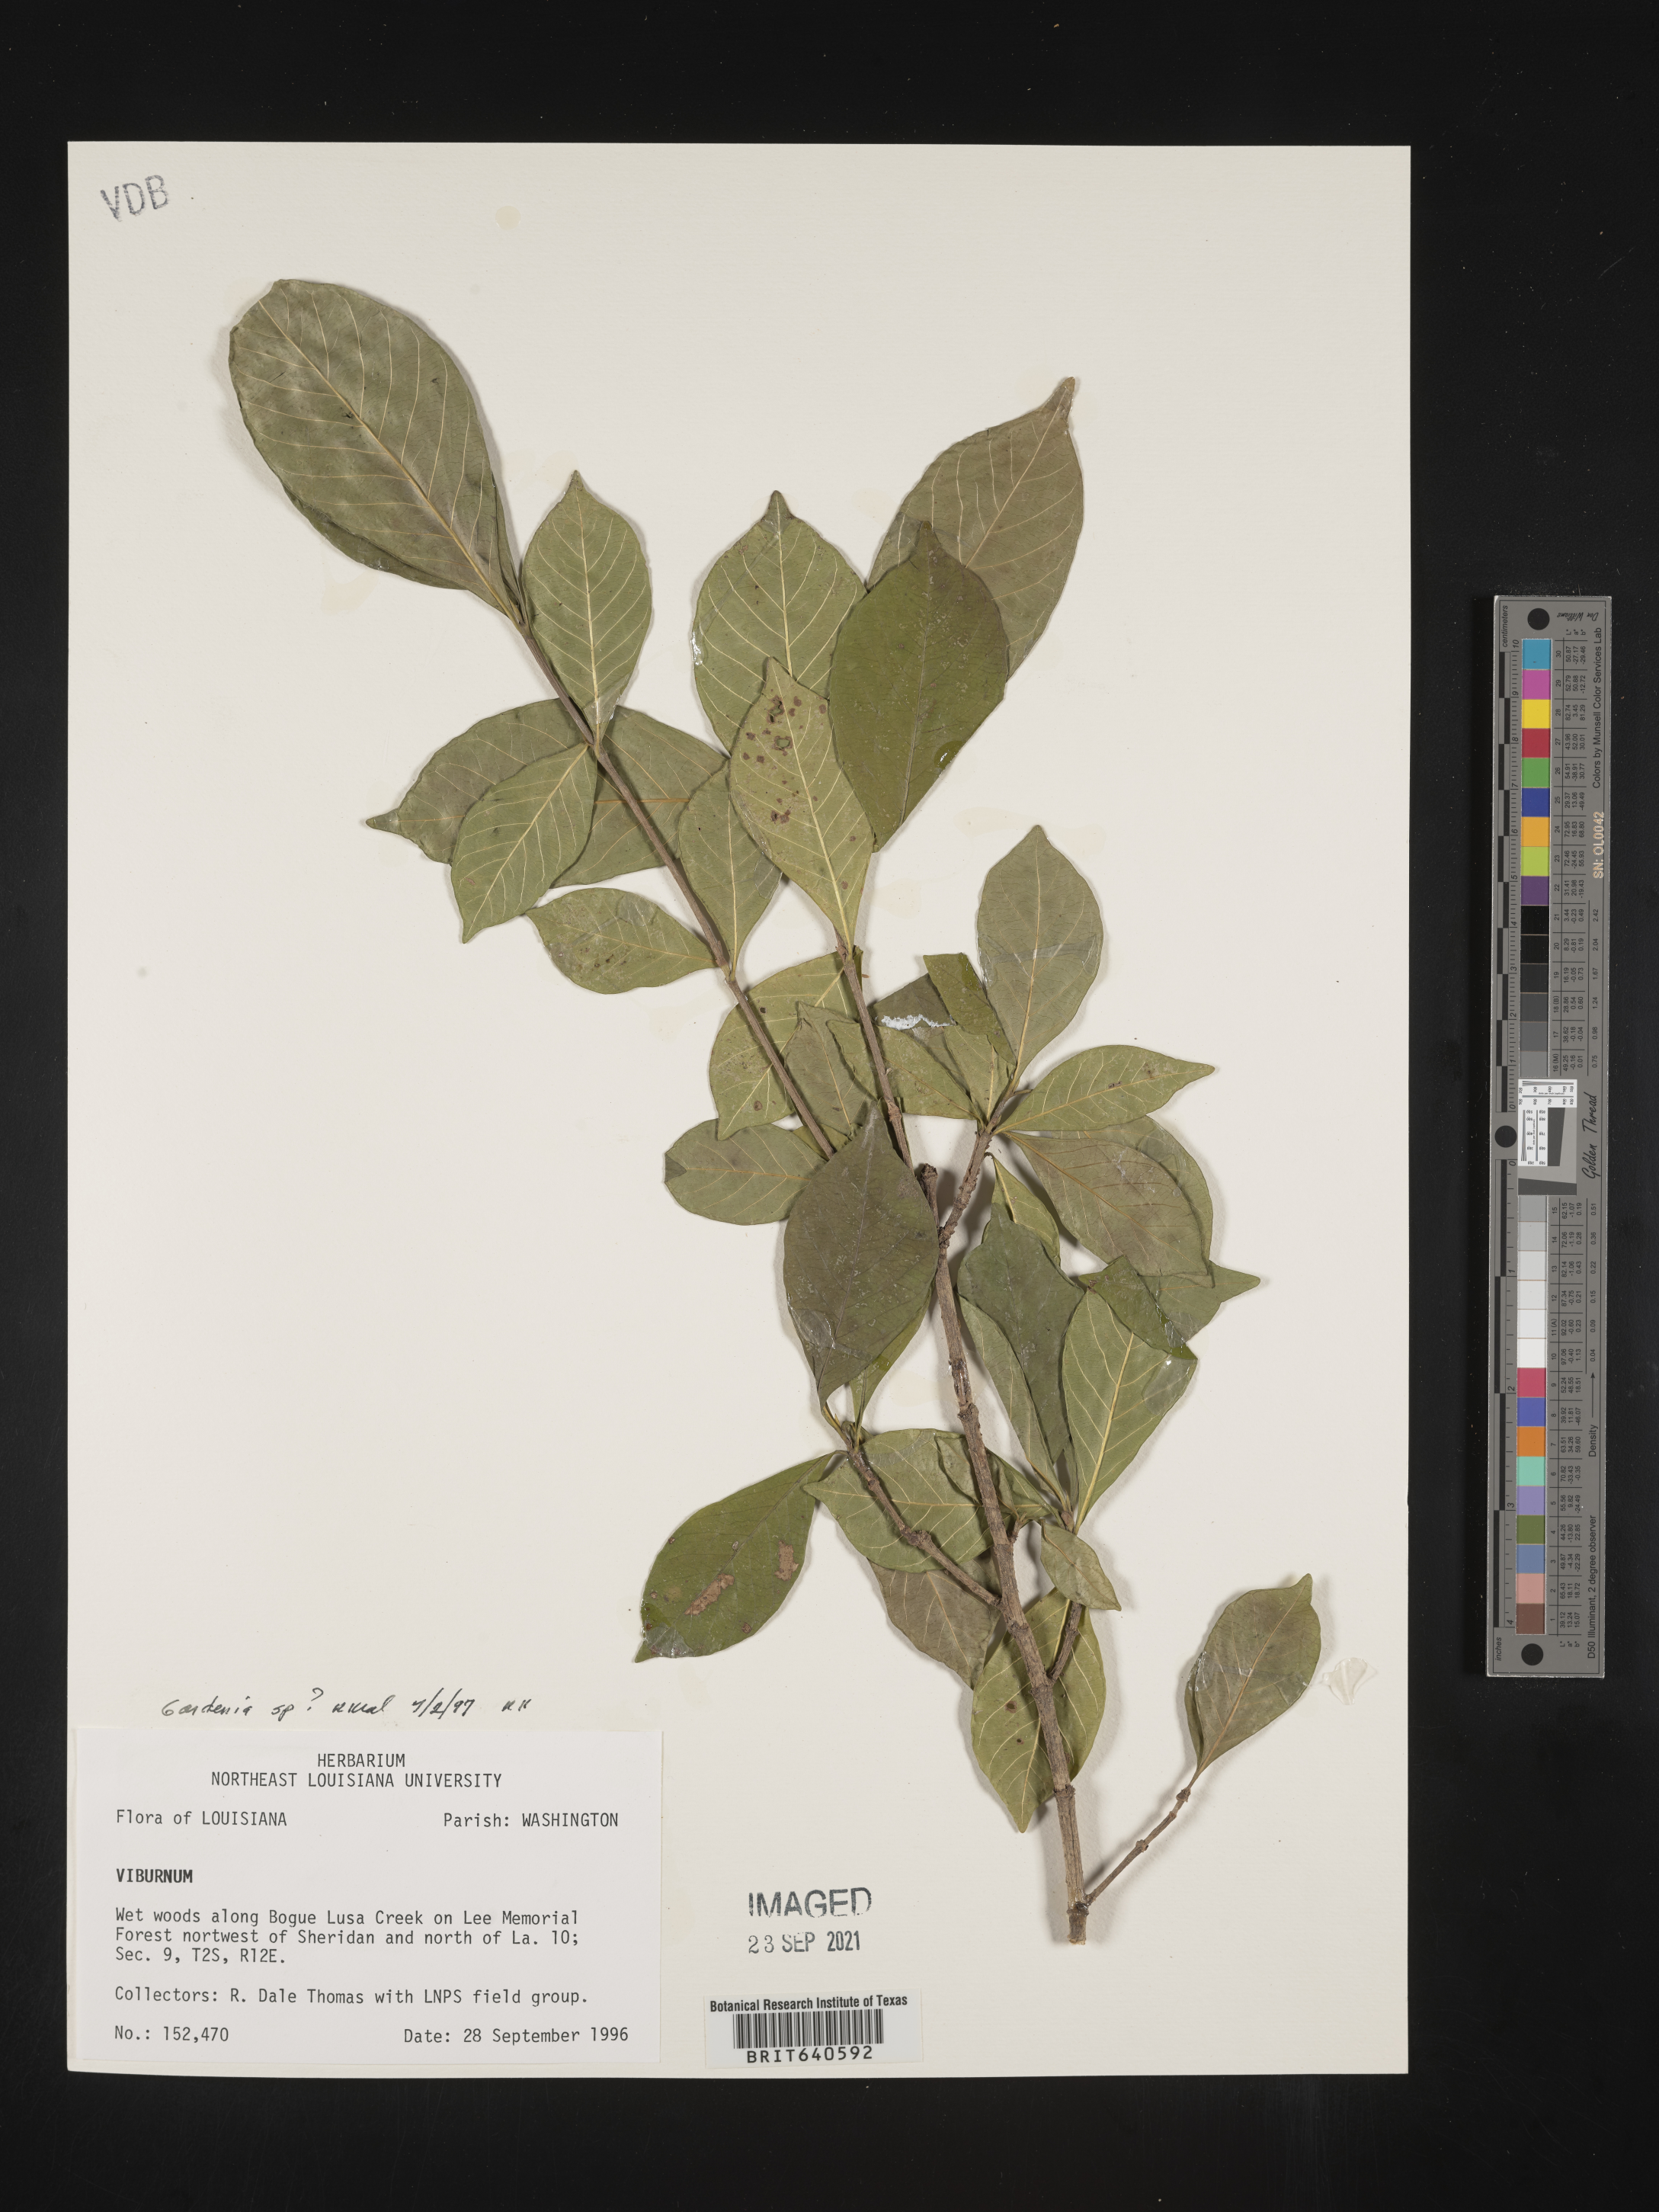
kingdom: Plantae
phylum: Tracheophyta
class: Magnoliopsida
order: Gentianales
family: Rubiaceae
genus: Gardenia
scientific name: Gardenia
